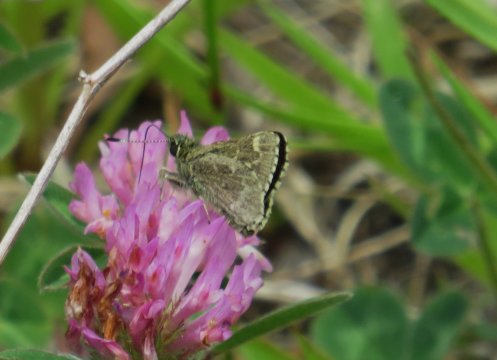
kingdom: Animalia
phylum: Arthropoda
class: Insecta
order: Lepidoptera
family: Hesperiidae
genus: Mastor
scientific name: Mastor hegon
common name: Pepper and Salt Skipper
